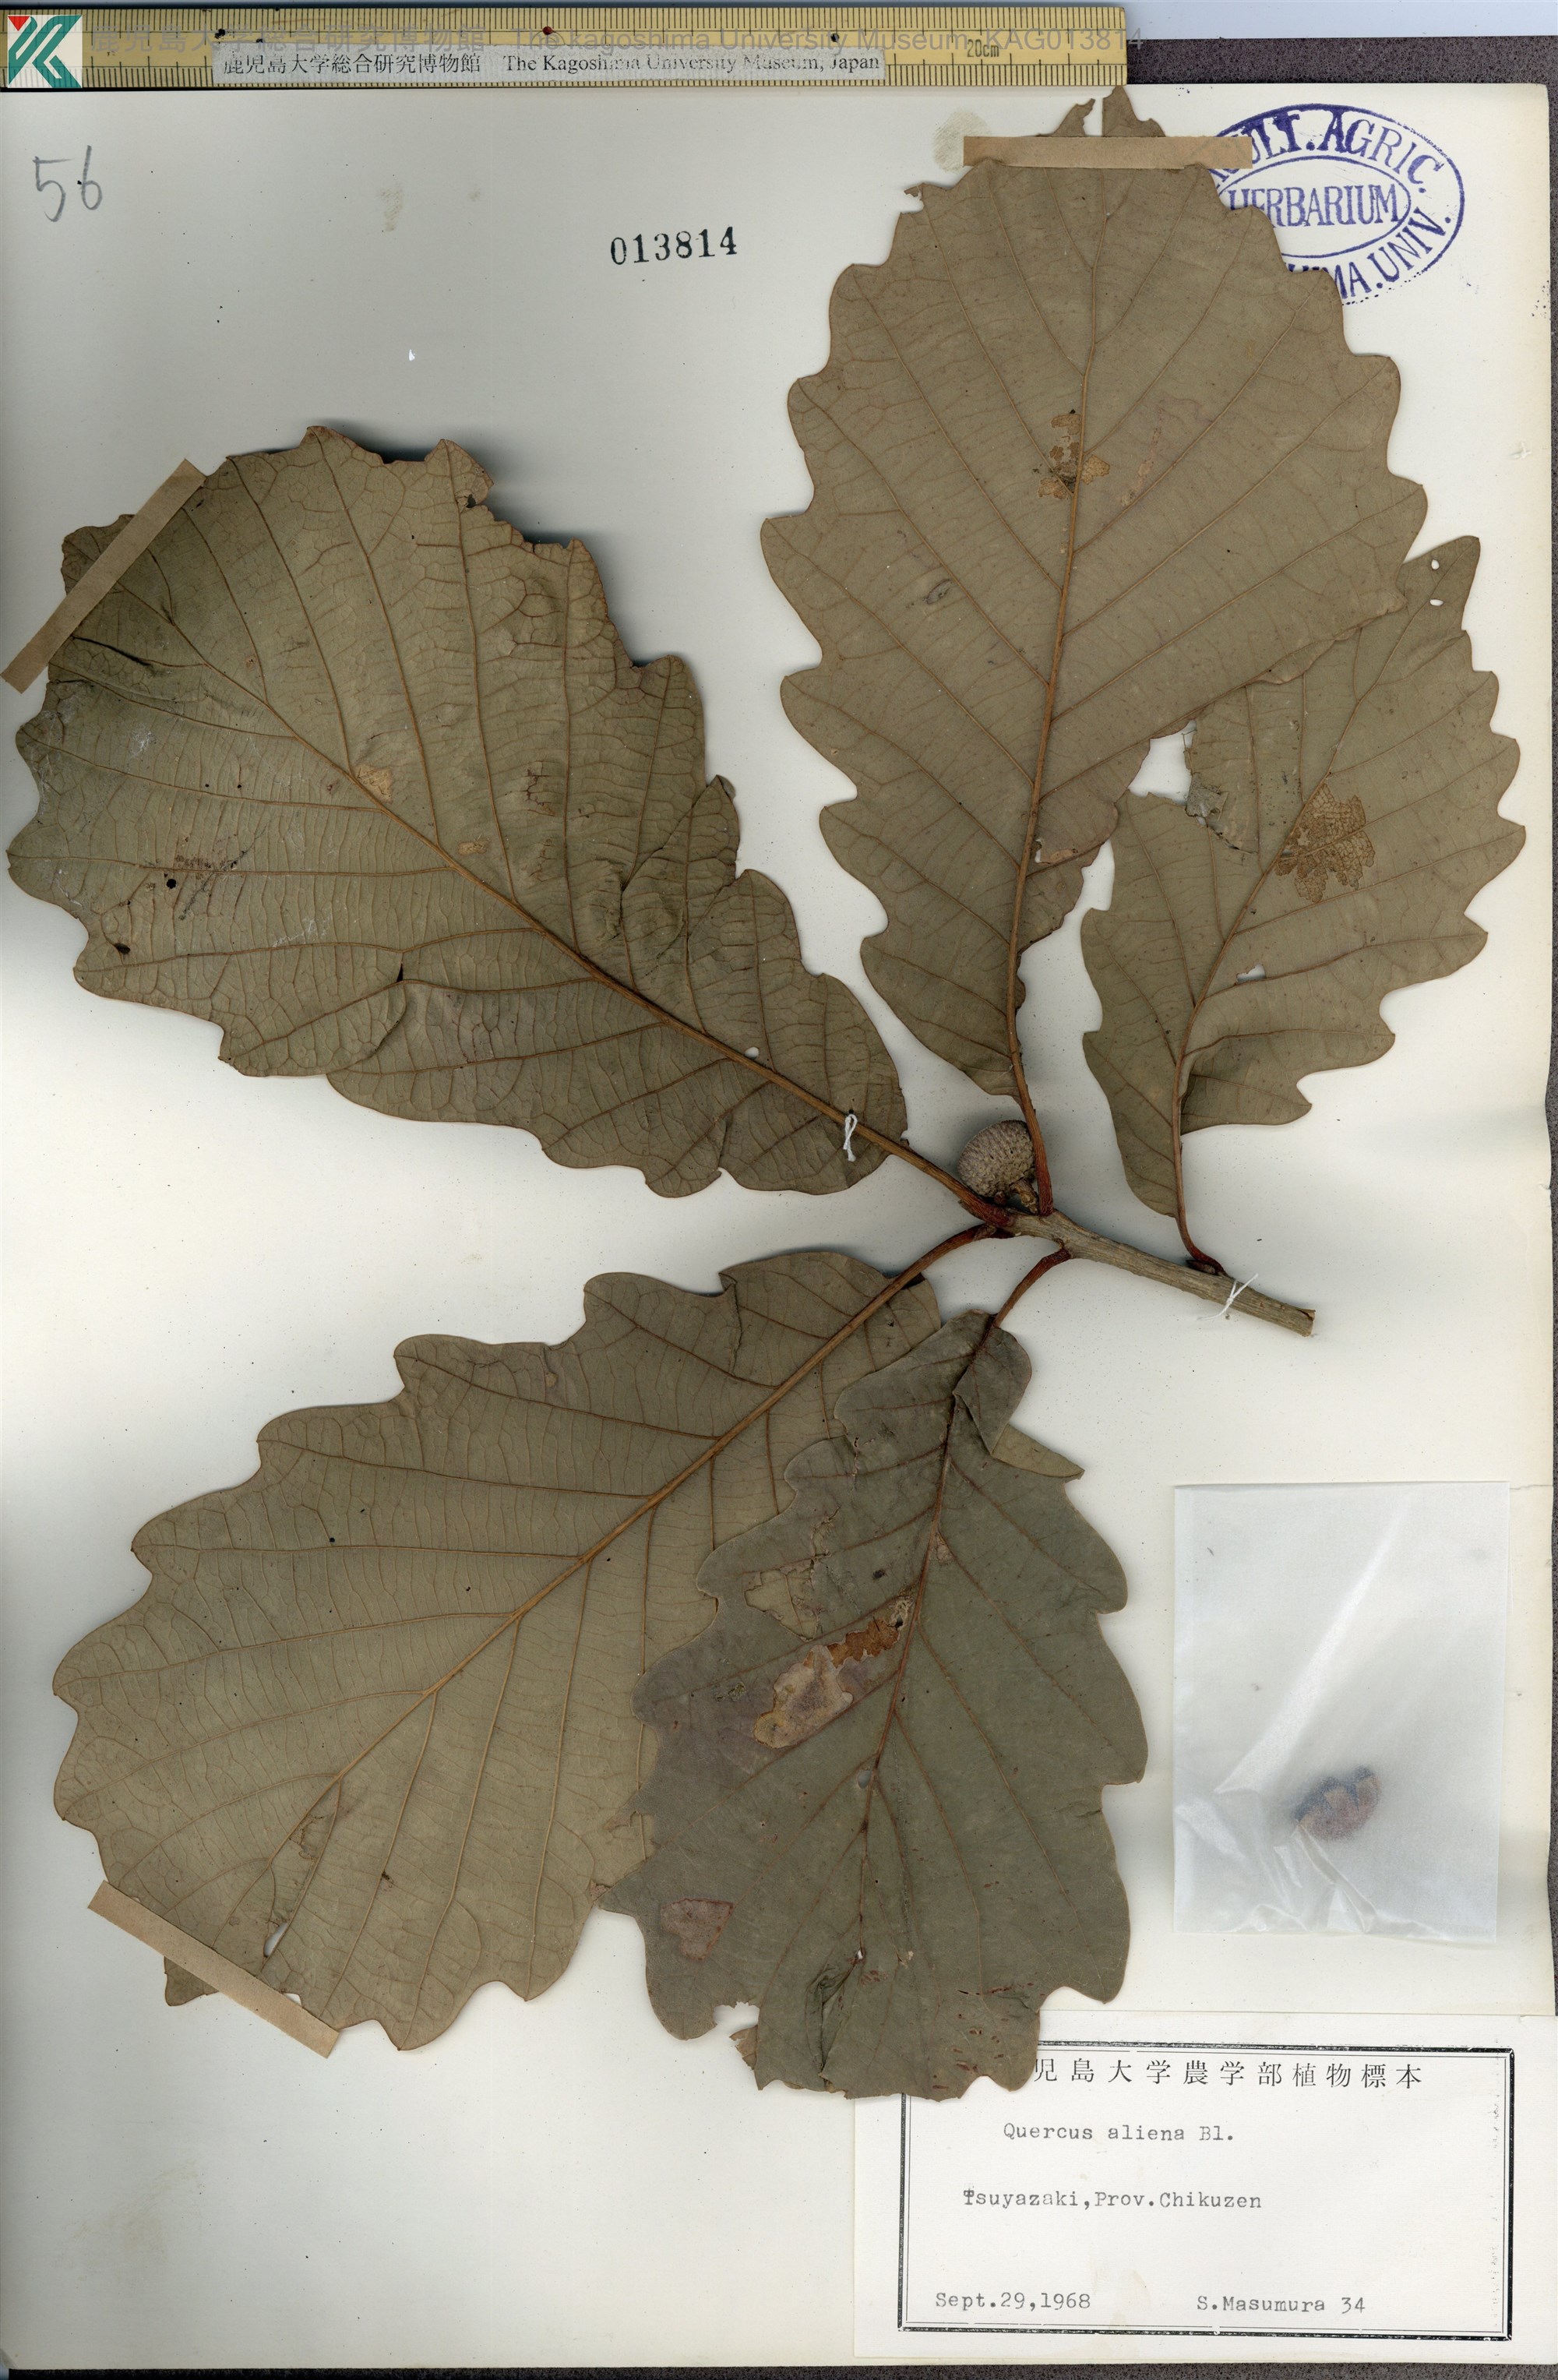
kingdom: Plantae
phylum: Tracheophyta
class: Magnoliopsida
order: Fagales
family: Fagaceae
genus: Quercus
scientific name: Quercus aliena
